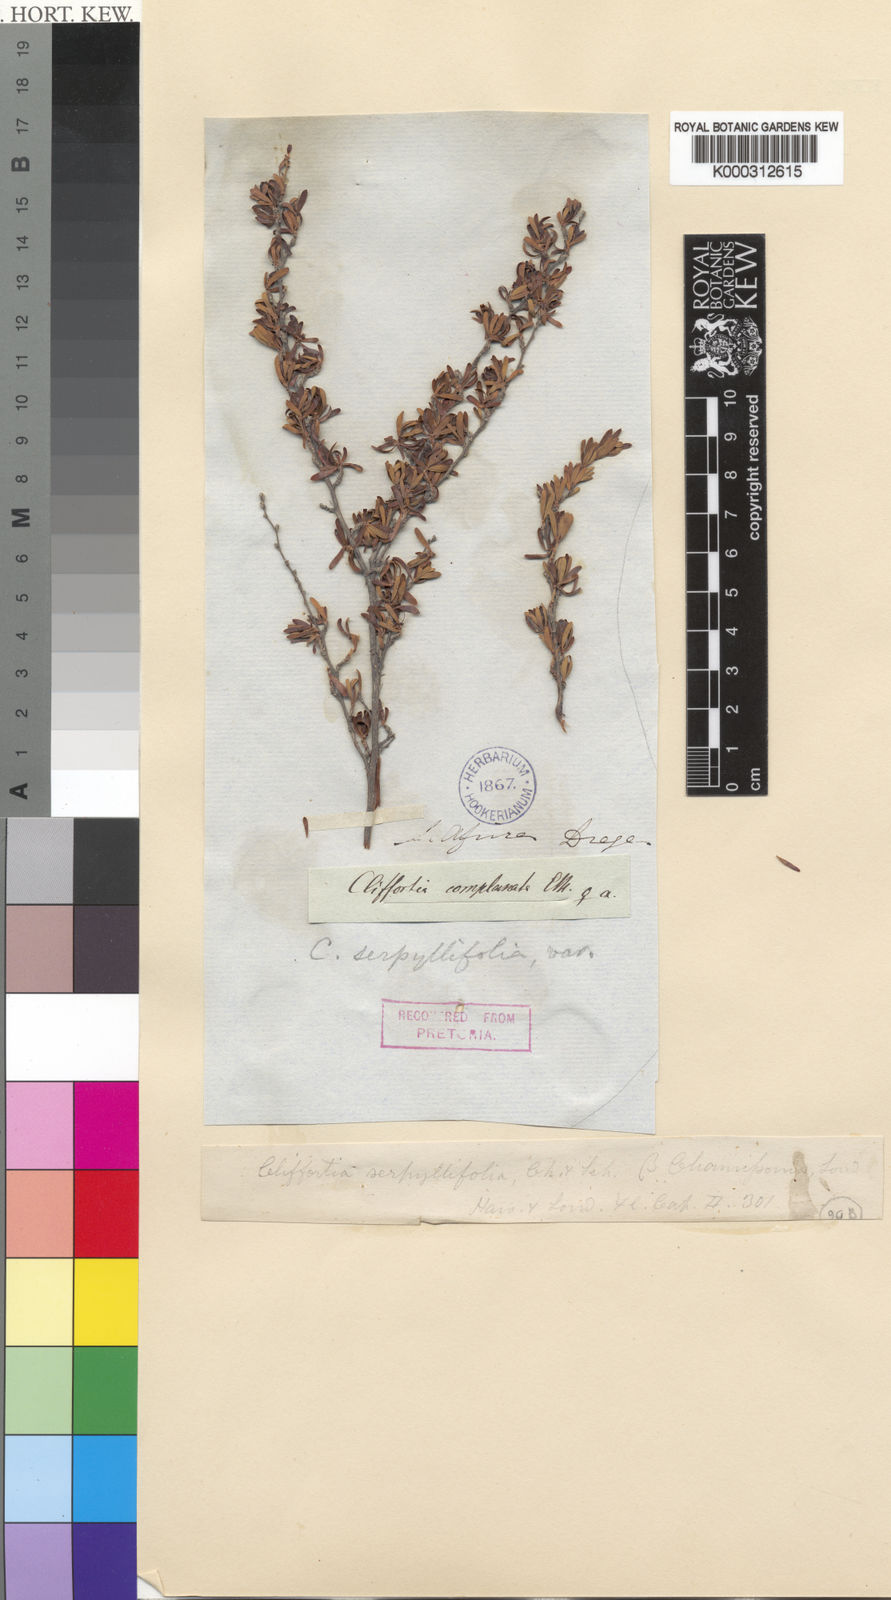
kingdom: Plantae
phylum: Tracheophyta
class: Magnoliopsida
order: Rosales
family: Rosaceae
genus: Cliffortia
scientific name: Cliffortia serpyllifolia
